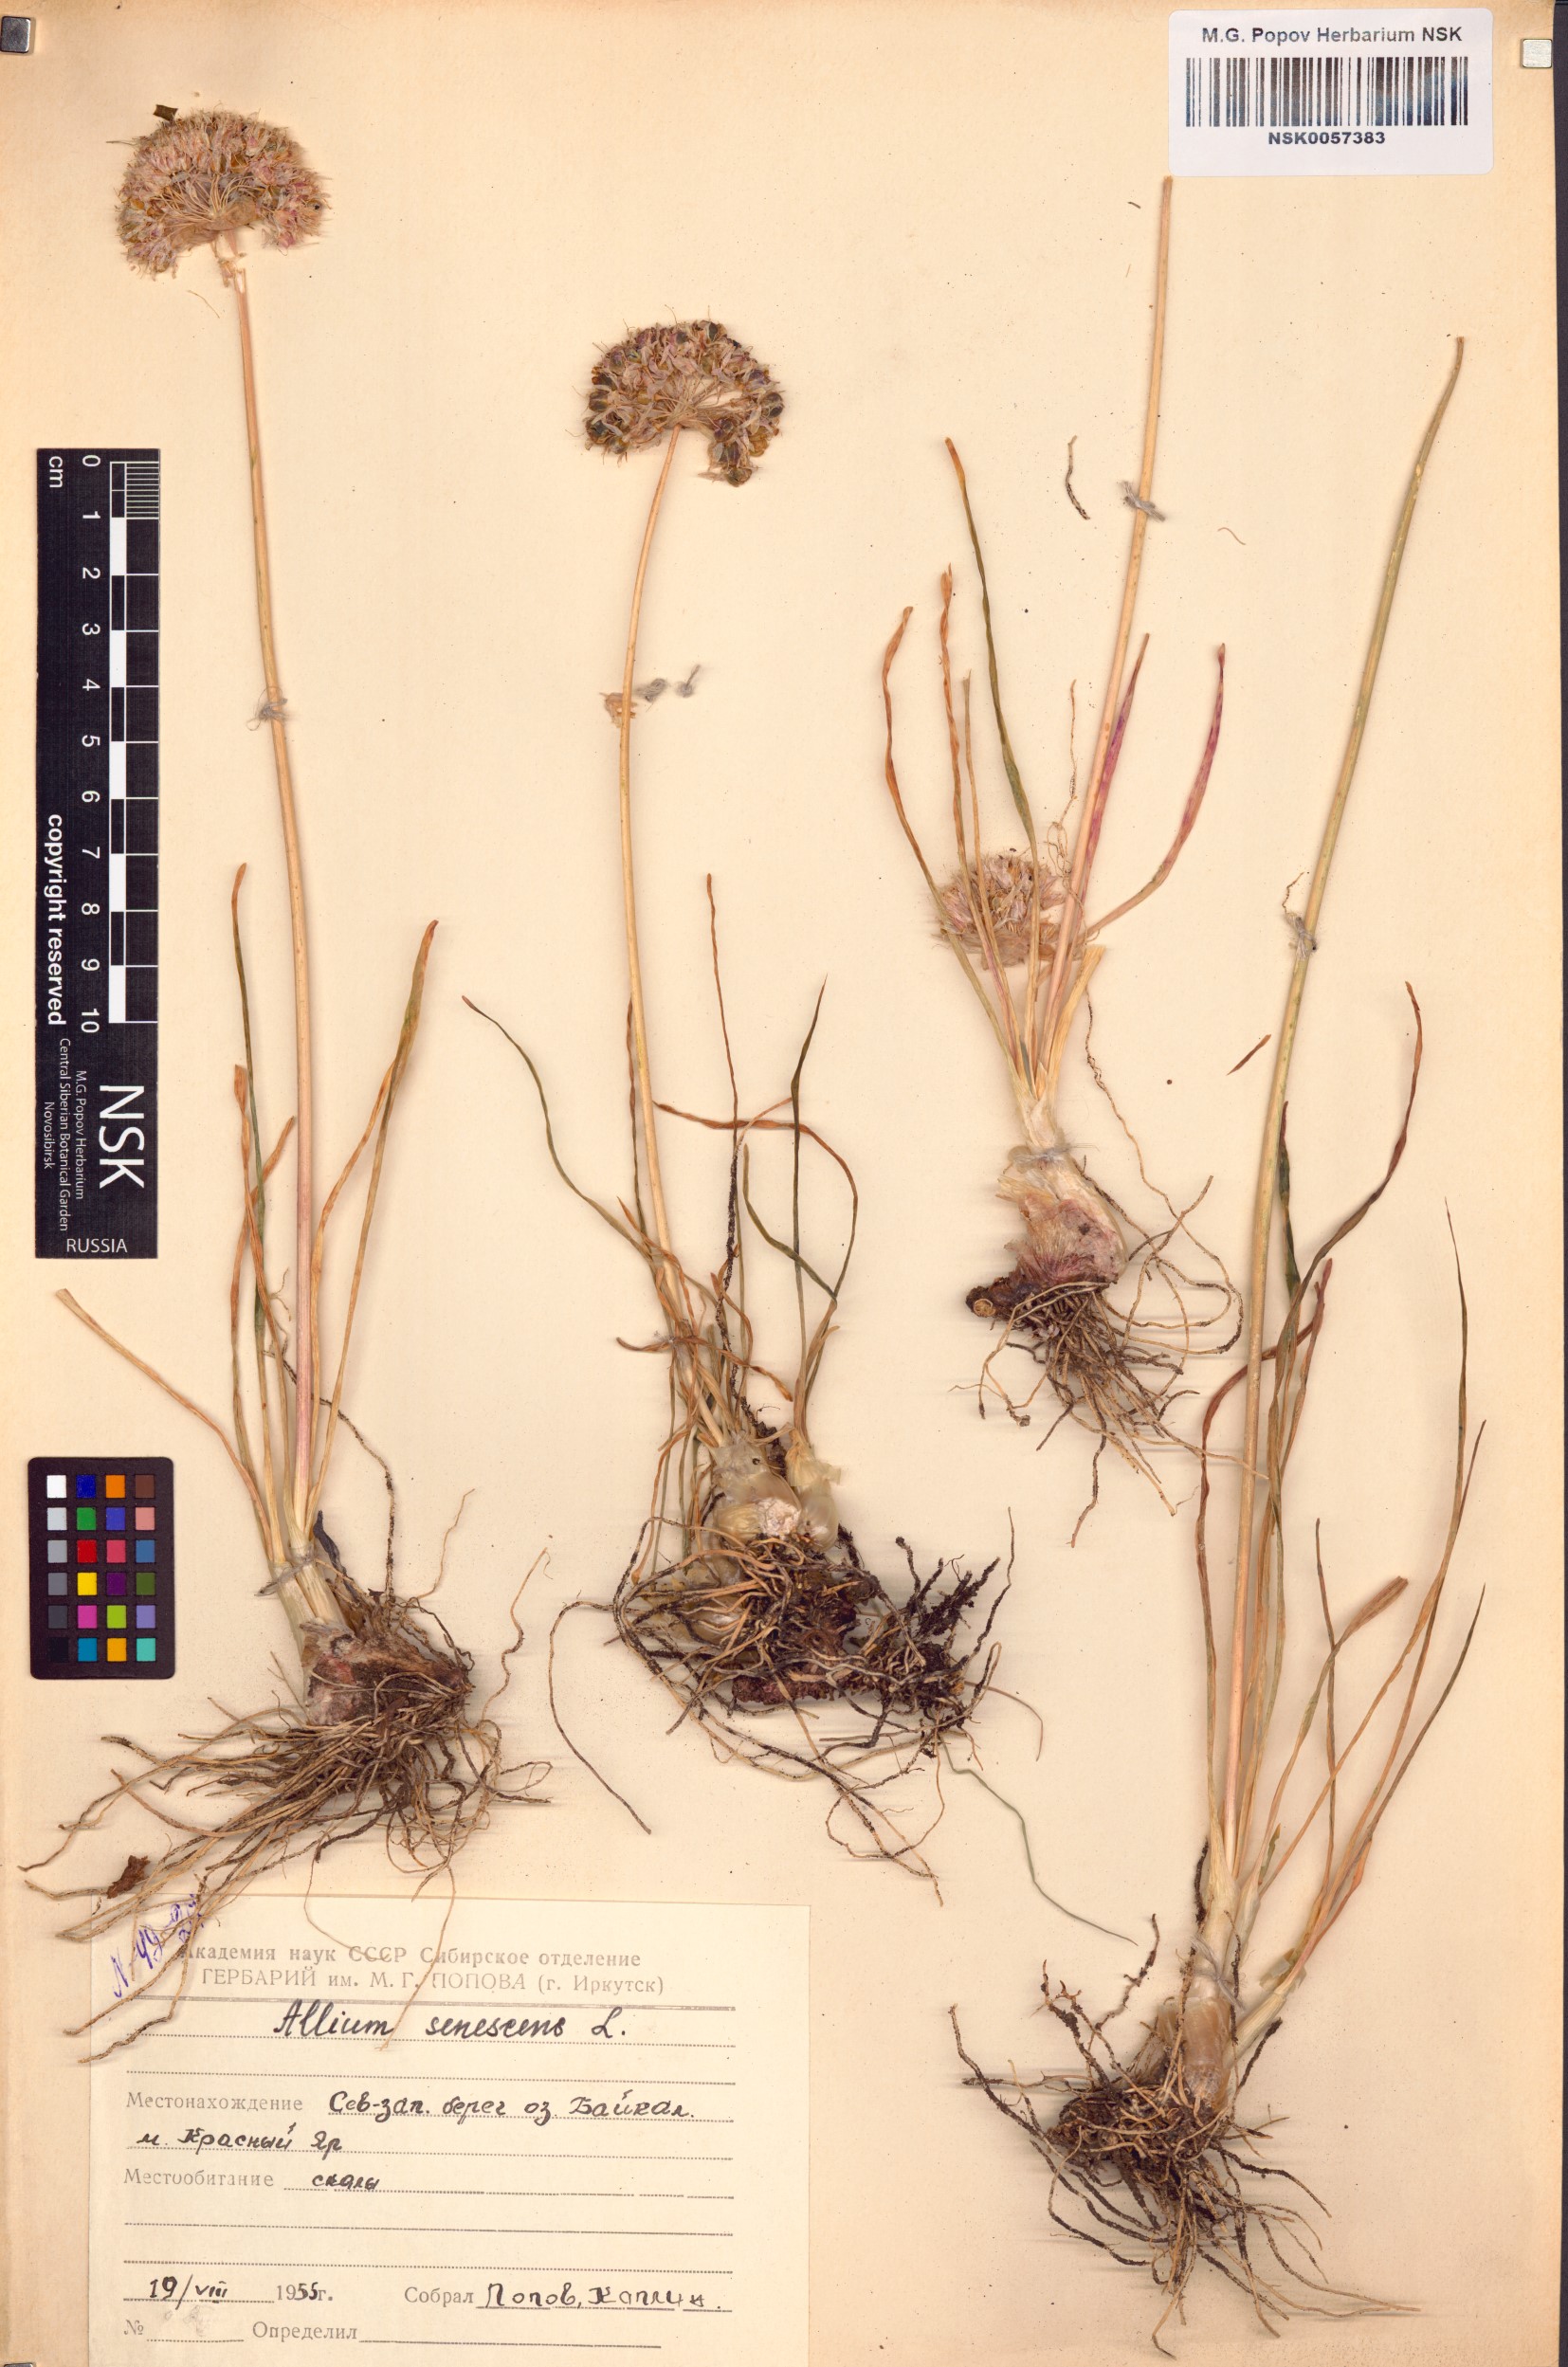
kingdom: Plantae
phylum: Tracheophyta
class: Liliopsida
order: Asparagales
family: Amaryllidaceae
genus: Allium
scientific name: Allium senescens
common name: German garlic
